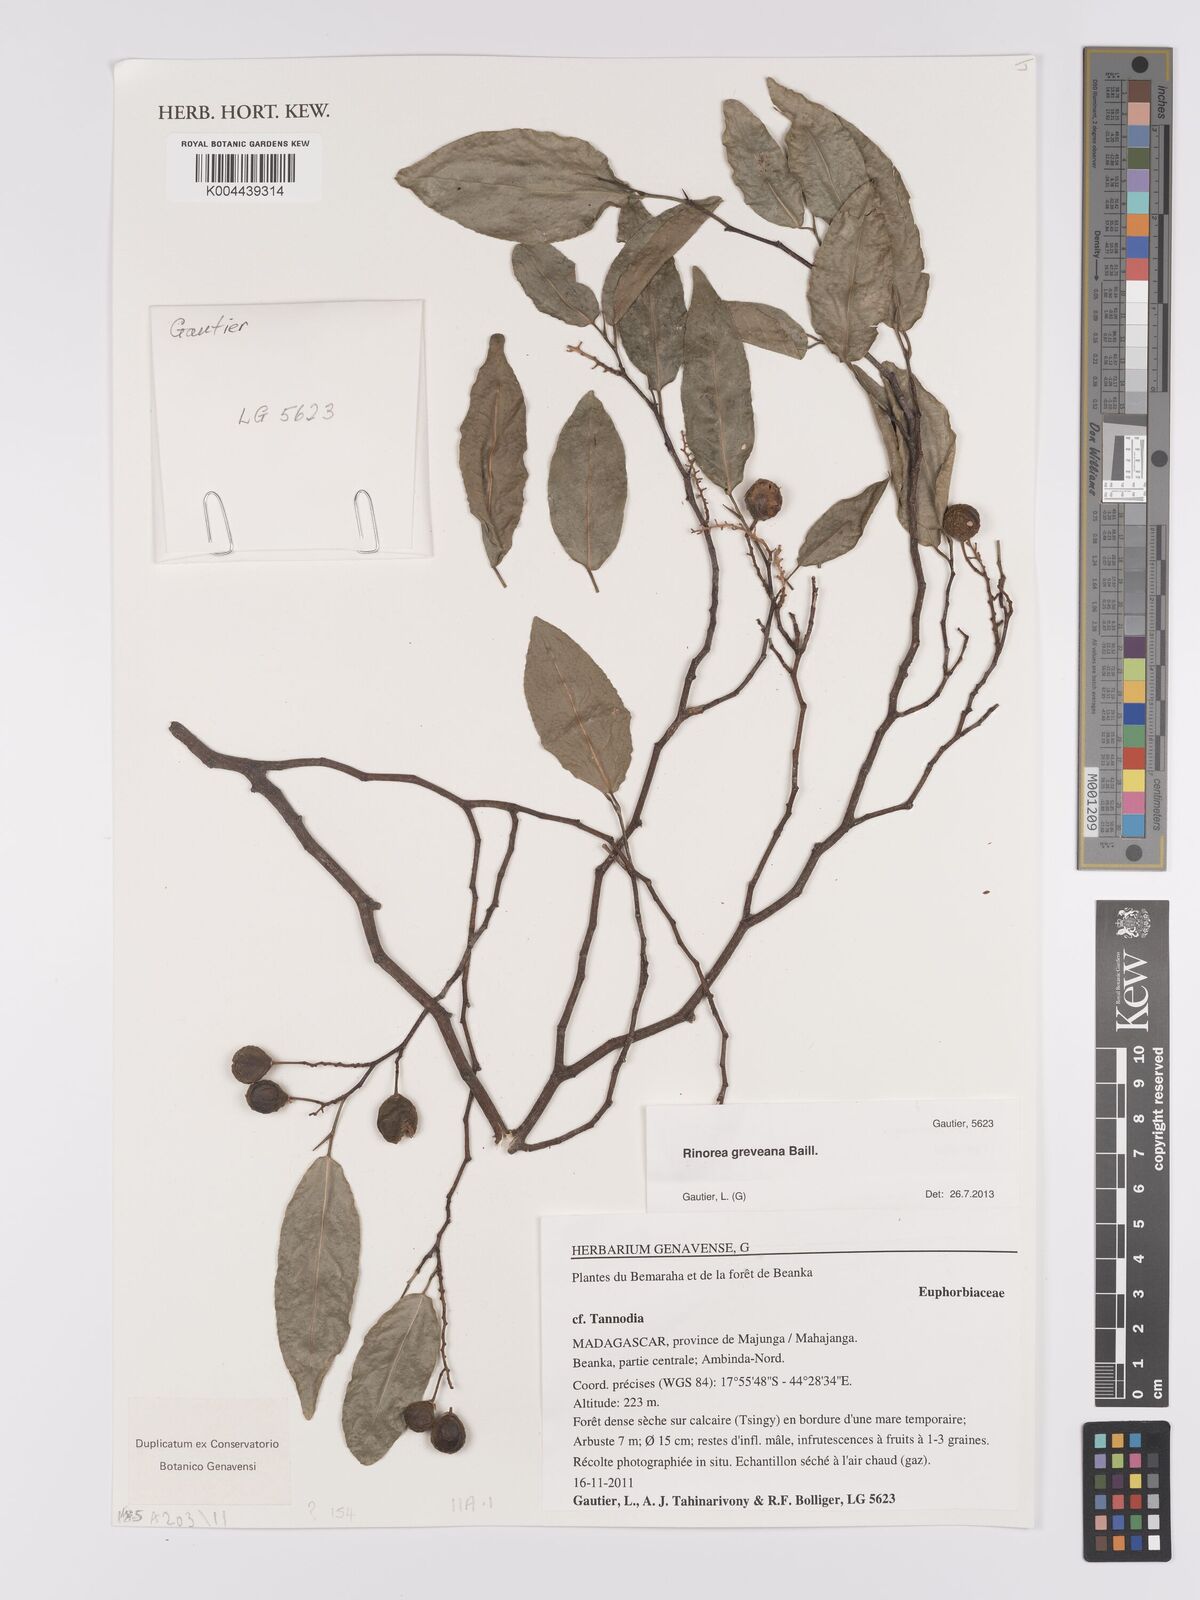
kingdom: Plantae
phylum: Tracheophyta
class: Magnoliopsida
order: Malpighiales
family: Violaceae
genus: Rinorea
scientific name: Rinorea greveana
